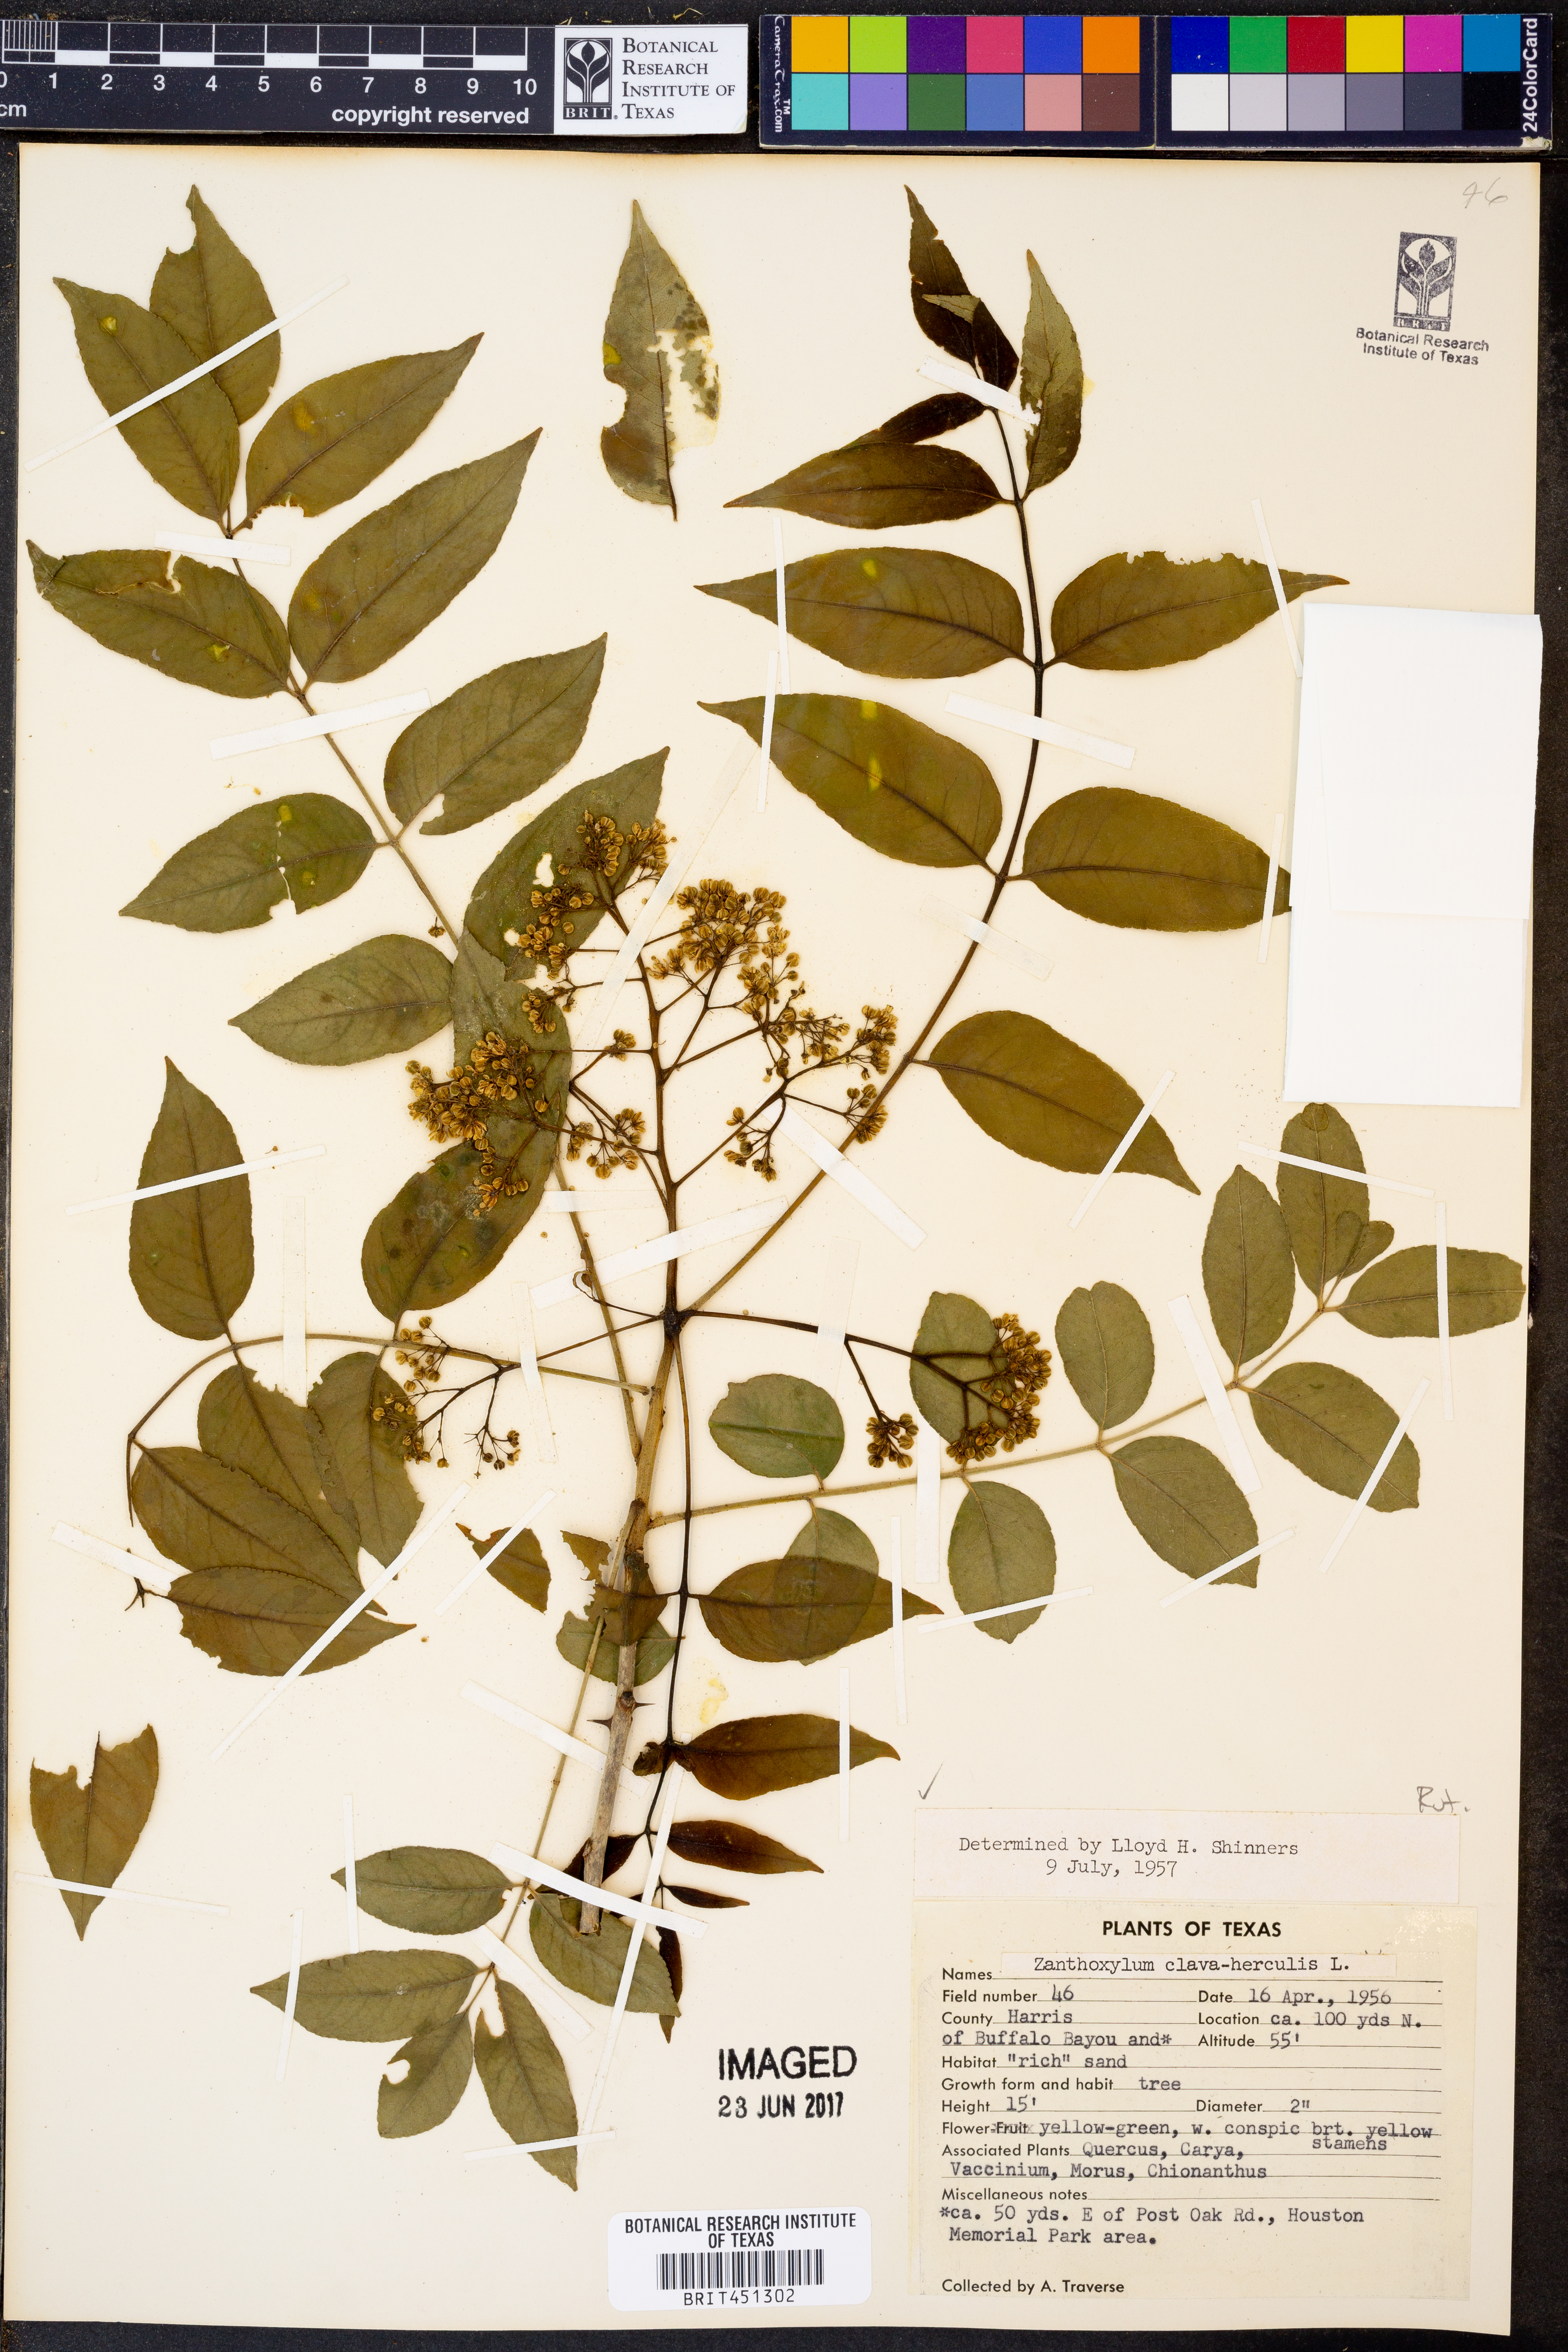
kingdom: Plantae
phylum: Tracheophyta
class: Magnoliopsida
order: Sapindales
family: Rutaceae
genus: Zanthoxylum
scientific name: Zanthoxylum avicennae
